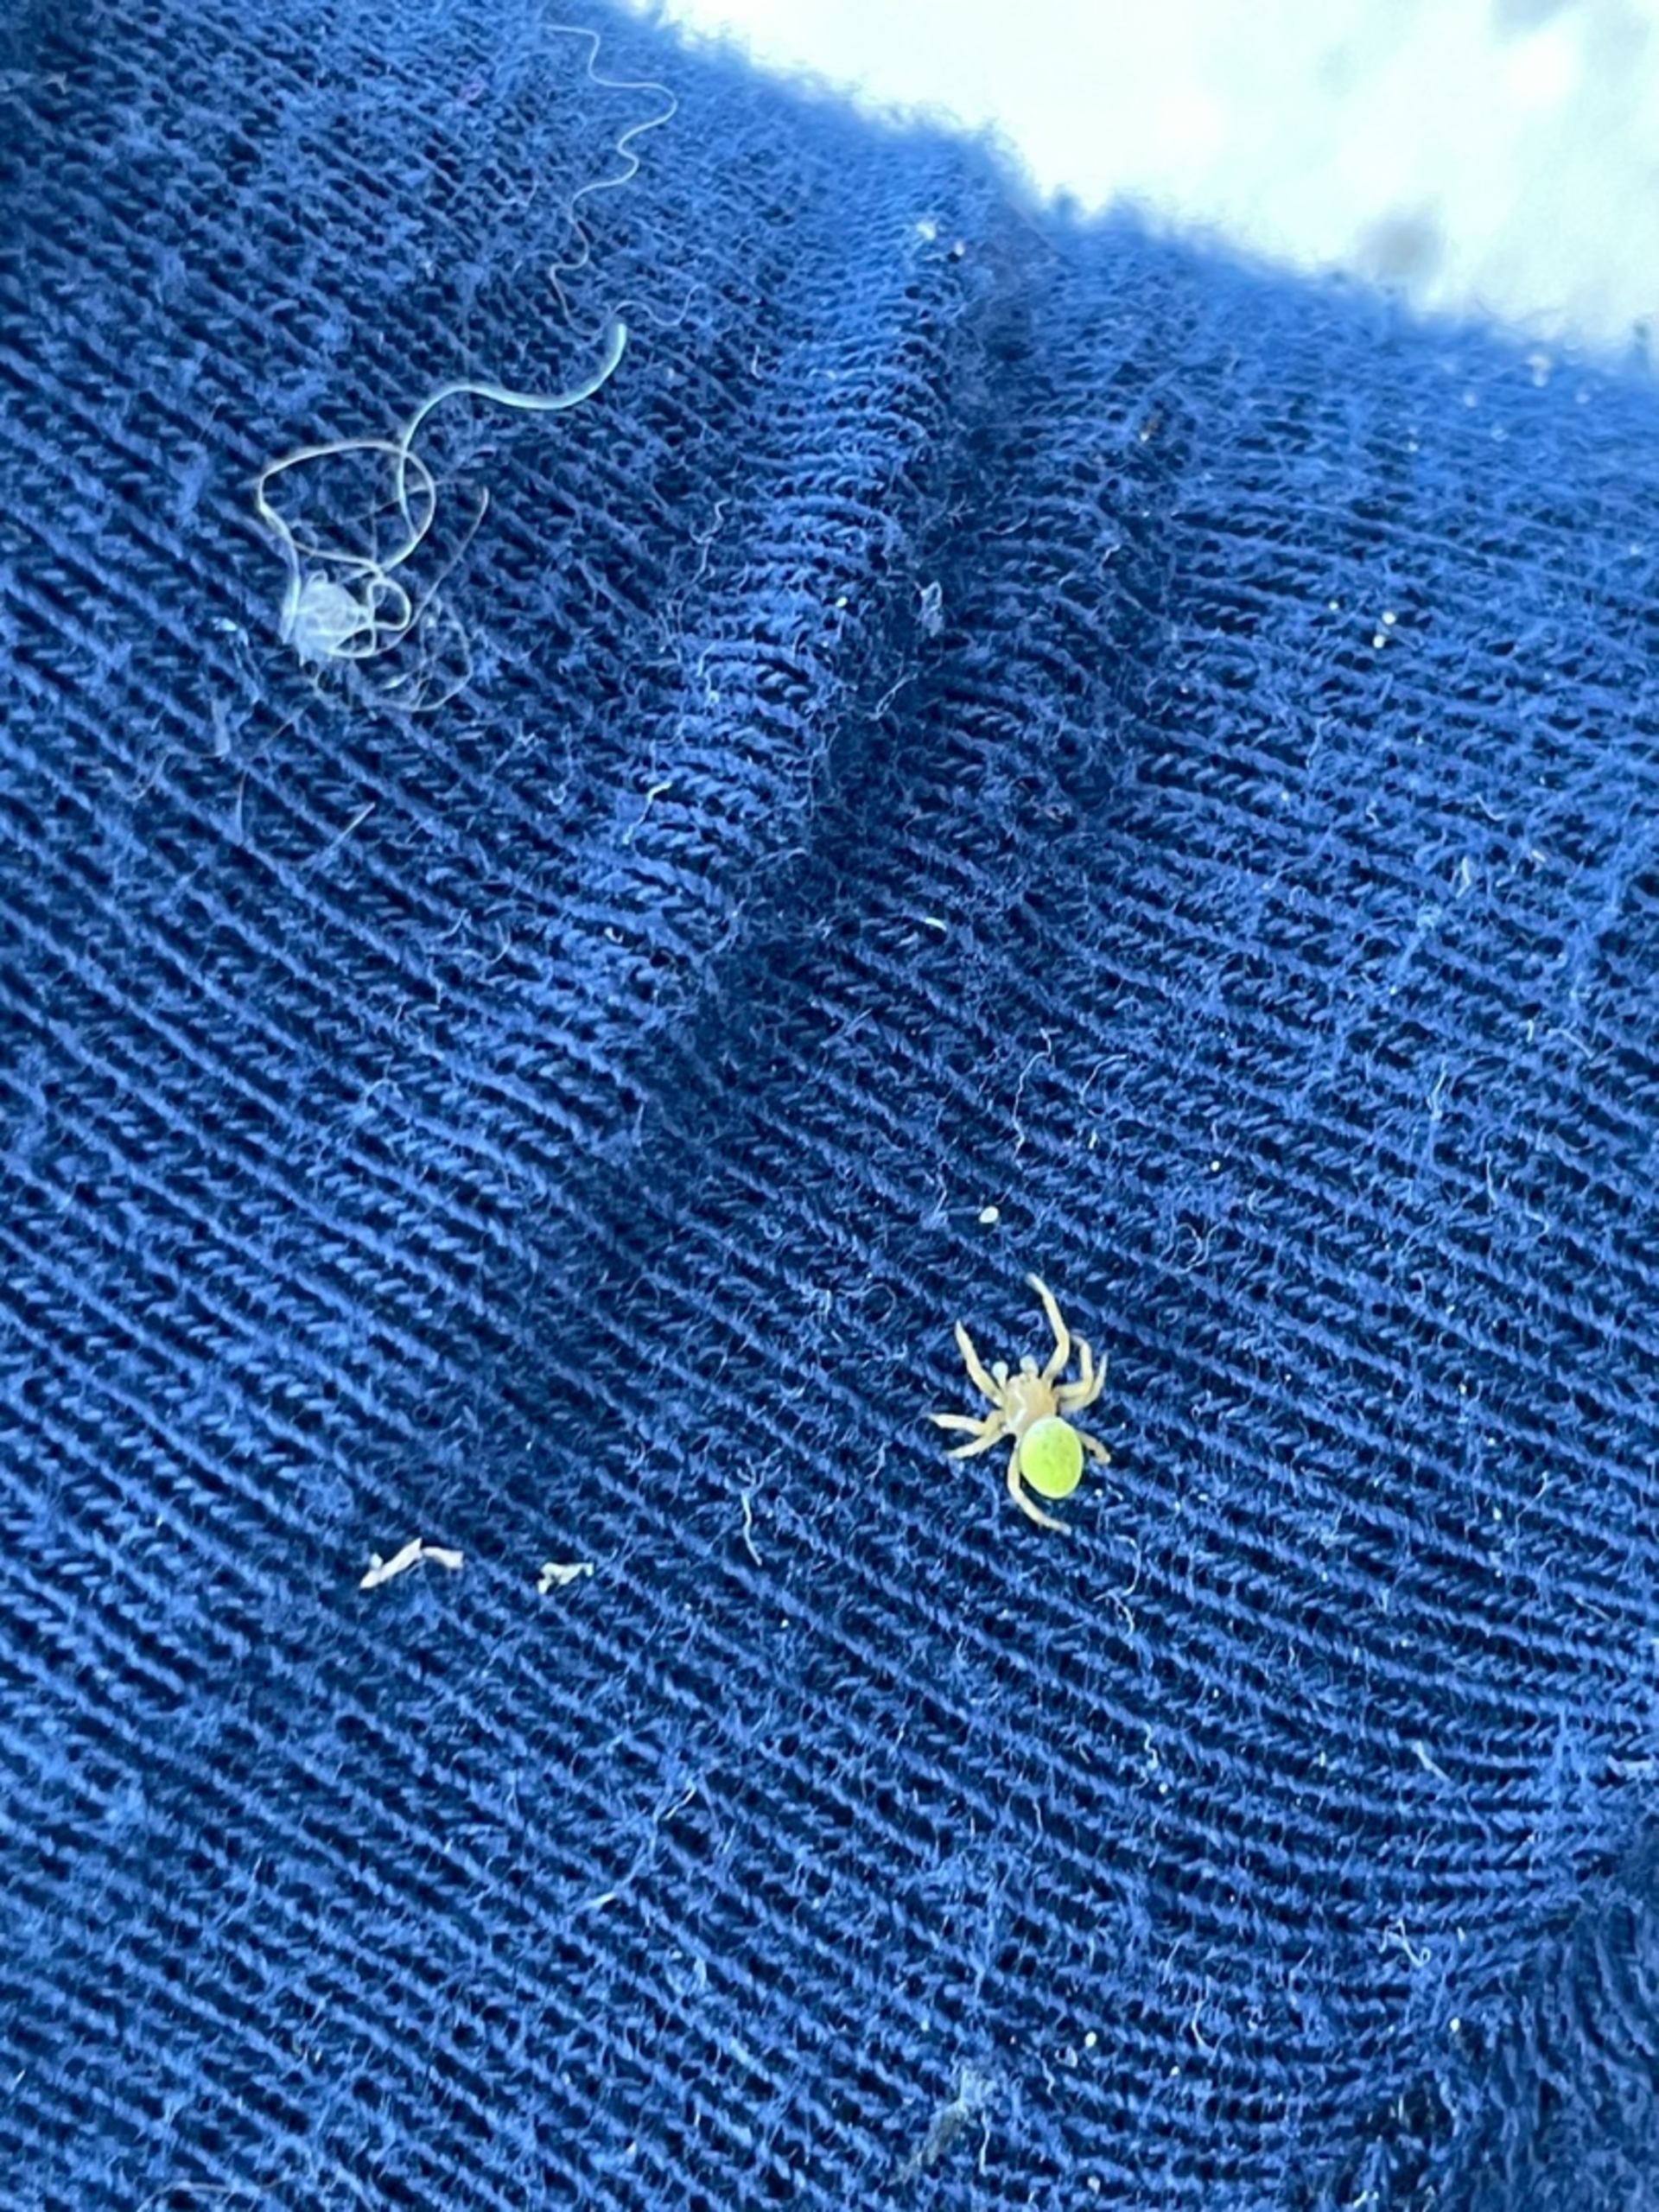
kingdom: Animalia
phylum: Arthropoda
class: Arachnida
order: Araneae
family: Araneidae
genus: Araniella
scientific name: Araniella
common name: Agurkeedderkopslægten
